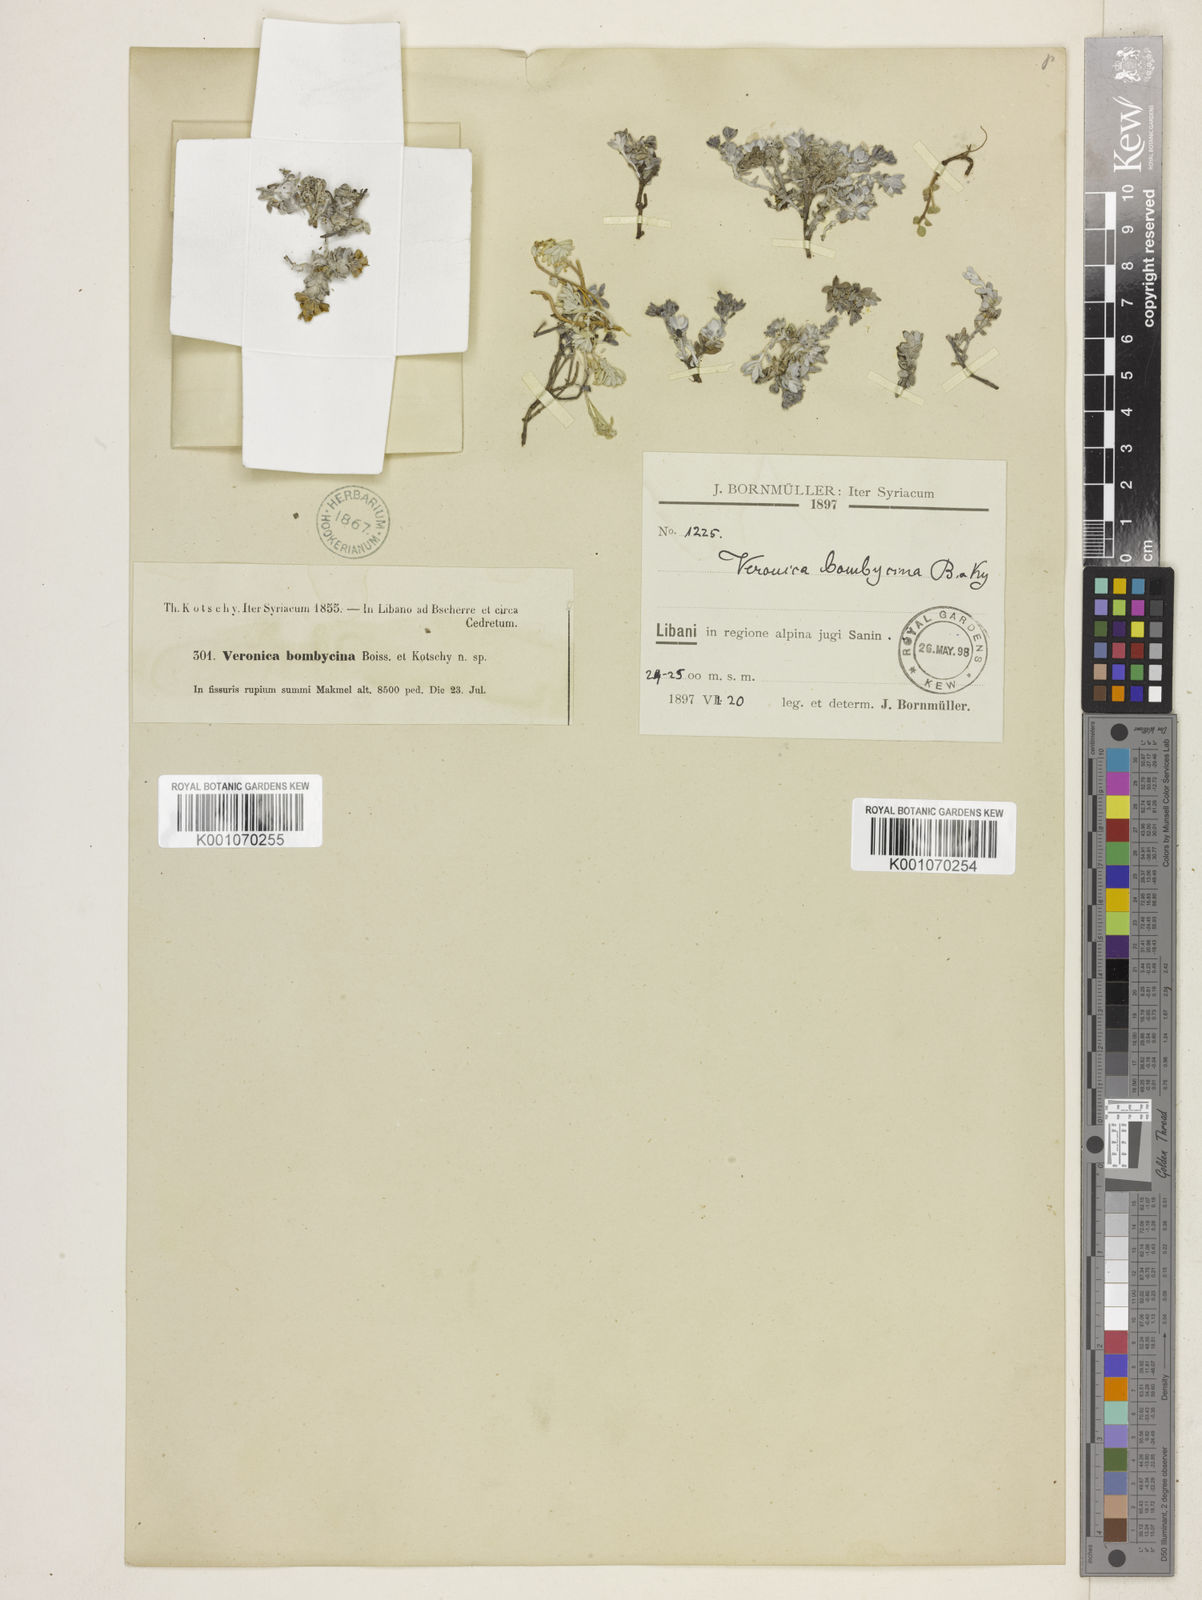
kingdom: Plantae
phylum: Tracheophyta
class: Magnoliopsida
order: Lamiales
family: Plantaginaceae
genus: Veronica
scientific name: Veronica bombycina
